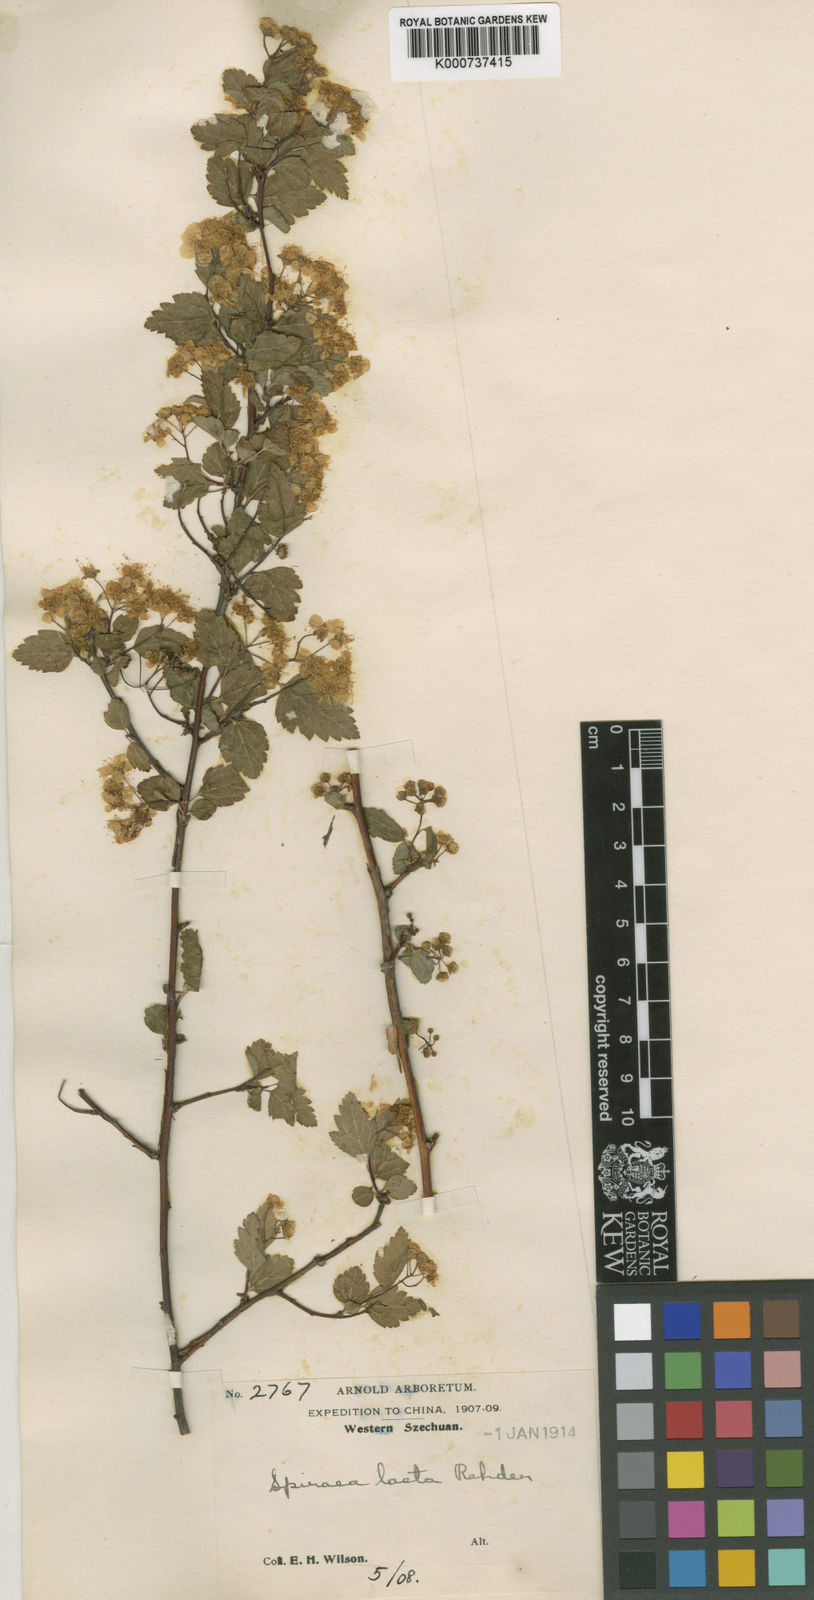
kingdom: Plantae
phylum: Tracheophyta
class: Magnoliopsida
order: Rosales
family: Rosaceae
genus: Spiraea
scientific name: Spiraea laeta
